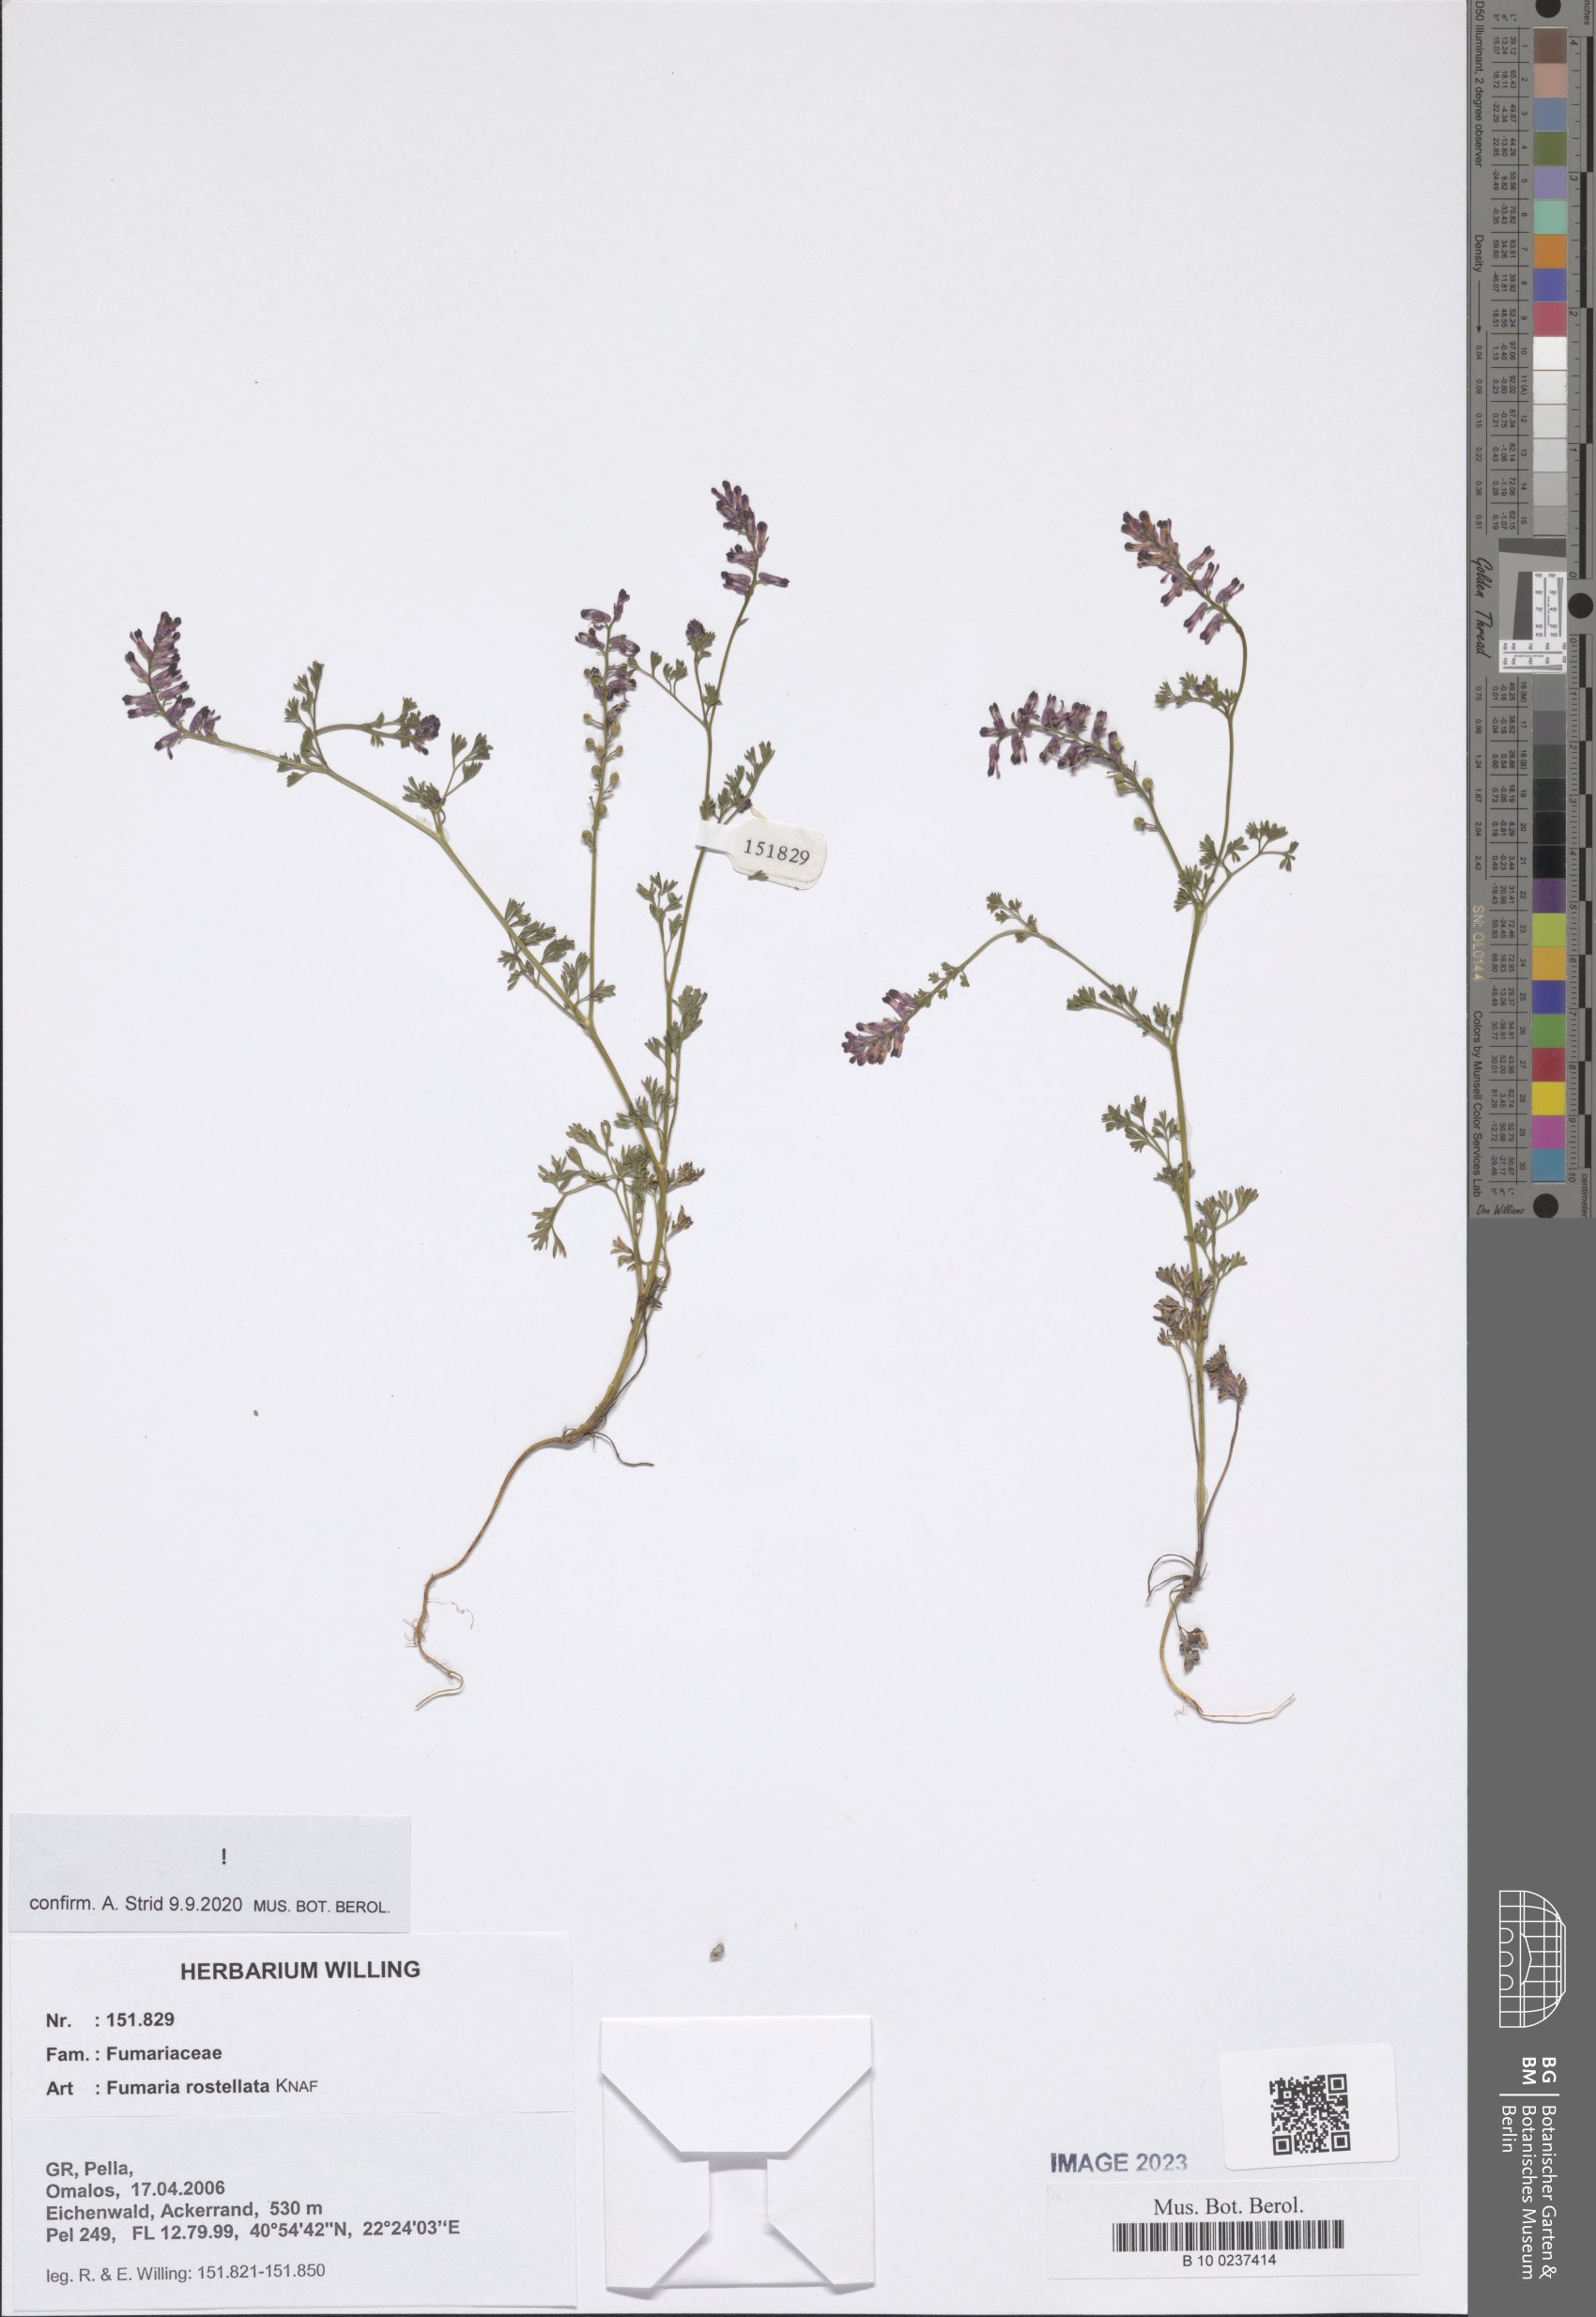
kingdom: Plantae
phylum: Tracheophyta
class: Magnoliopsida
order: Ranunculales
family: Papaveraceae
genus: Fumaria
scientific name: Fumaria rostellata
